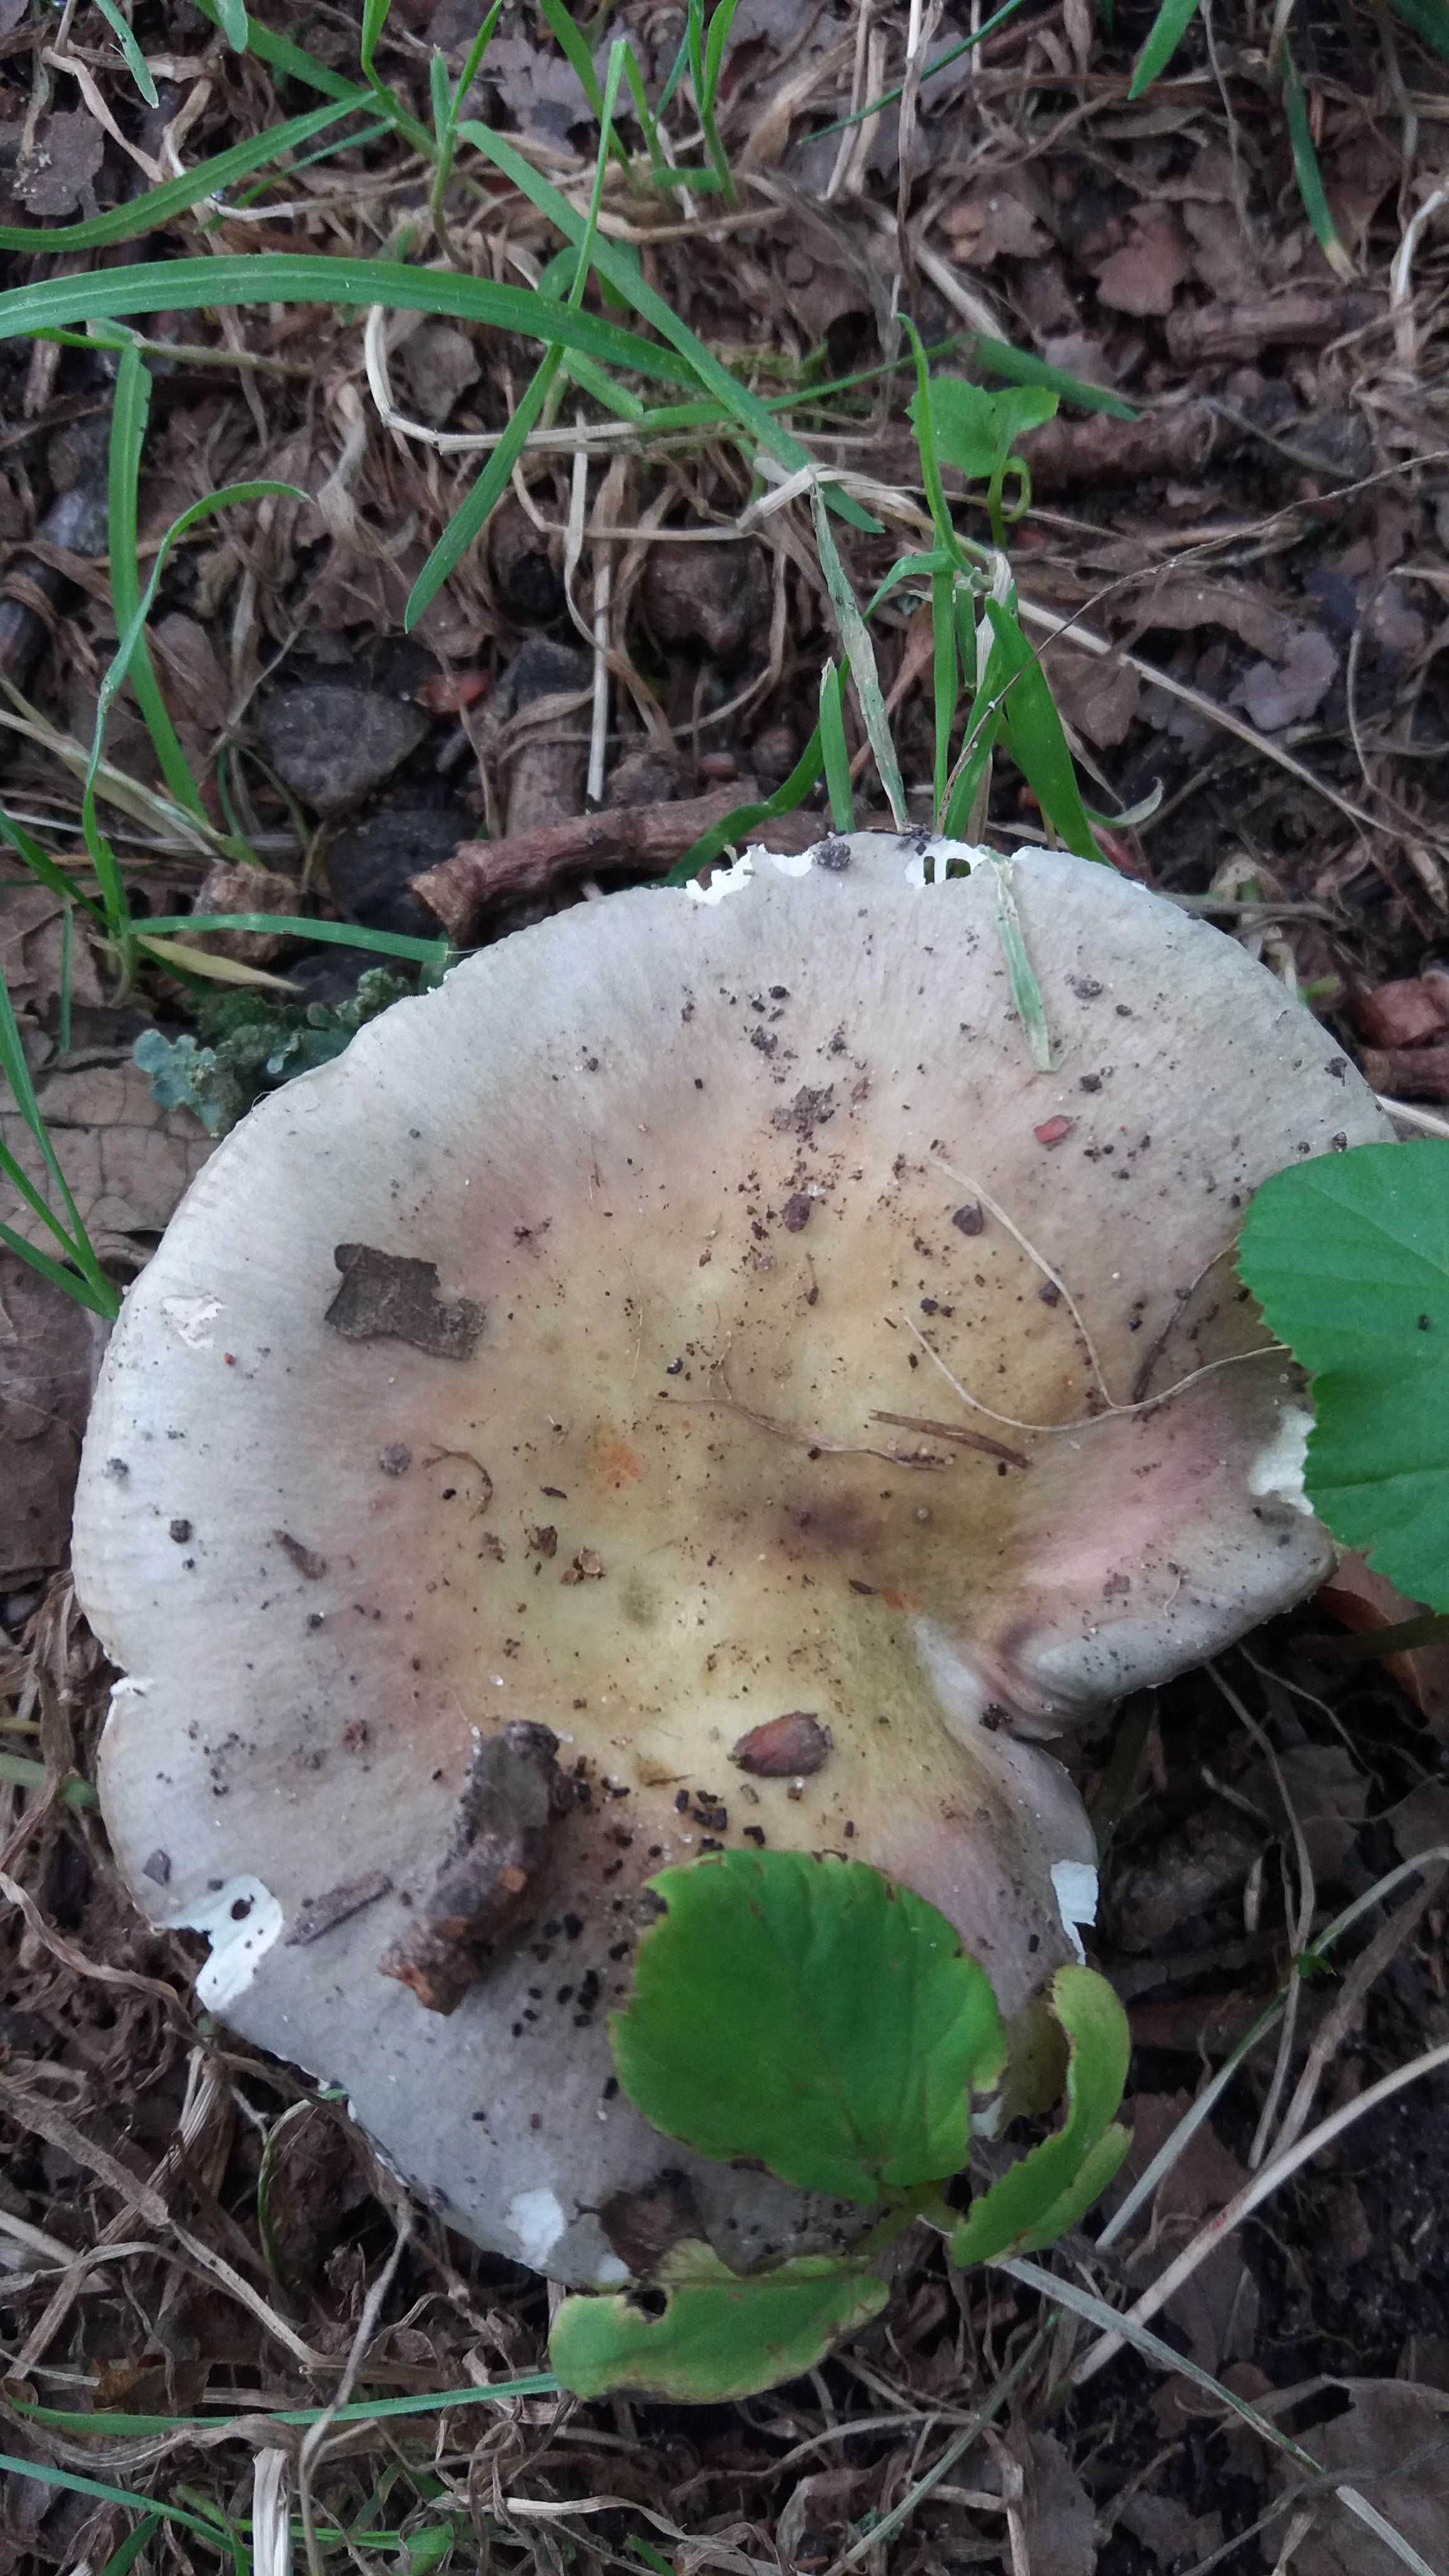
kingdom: Fungi
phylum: Basidiomycota
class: Agaricomycetes
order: Russulales
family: Russulaceae
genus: Russula
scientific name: Russula
